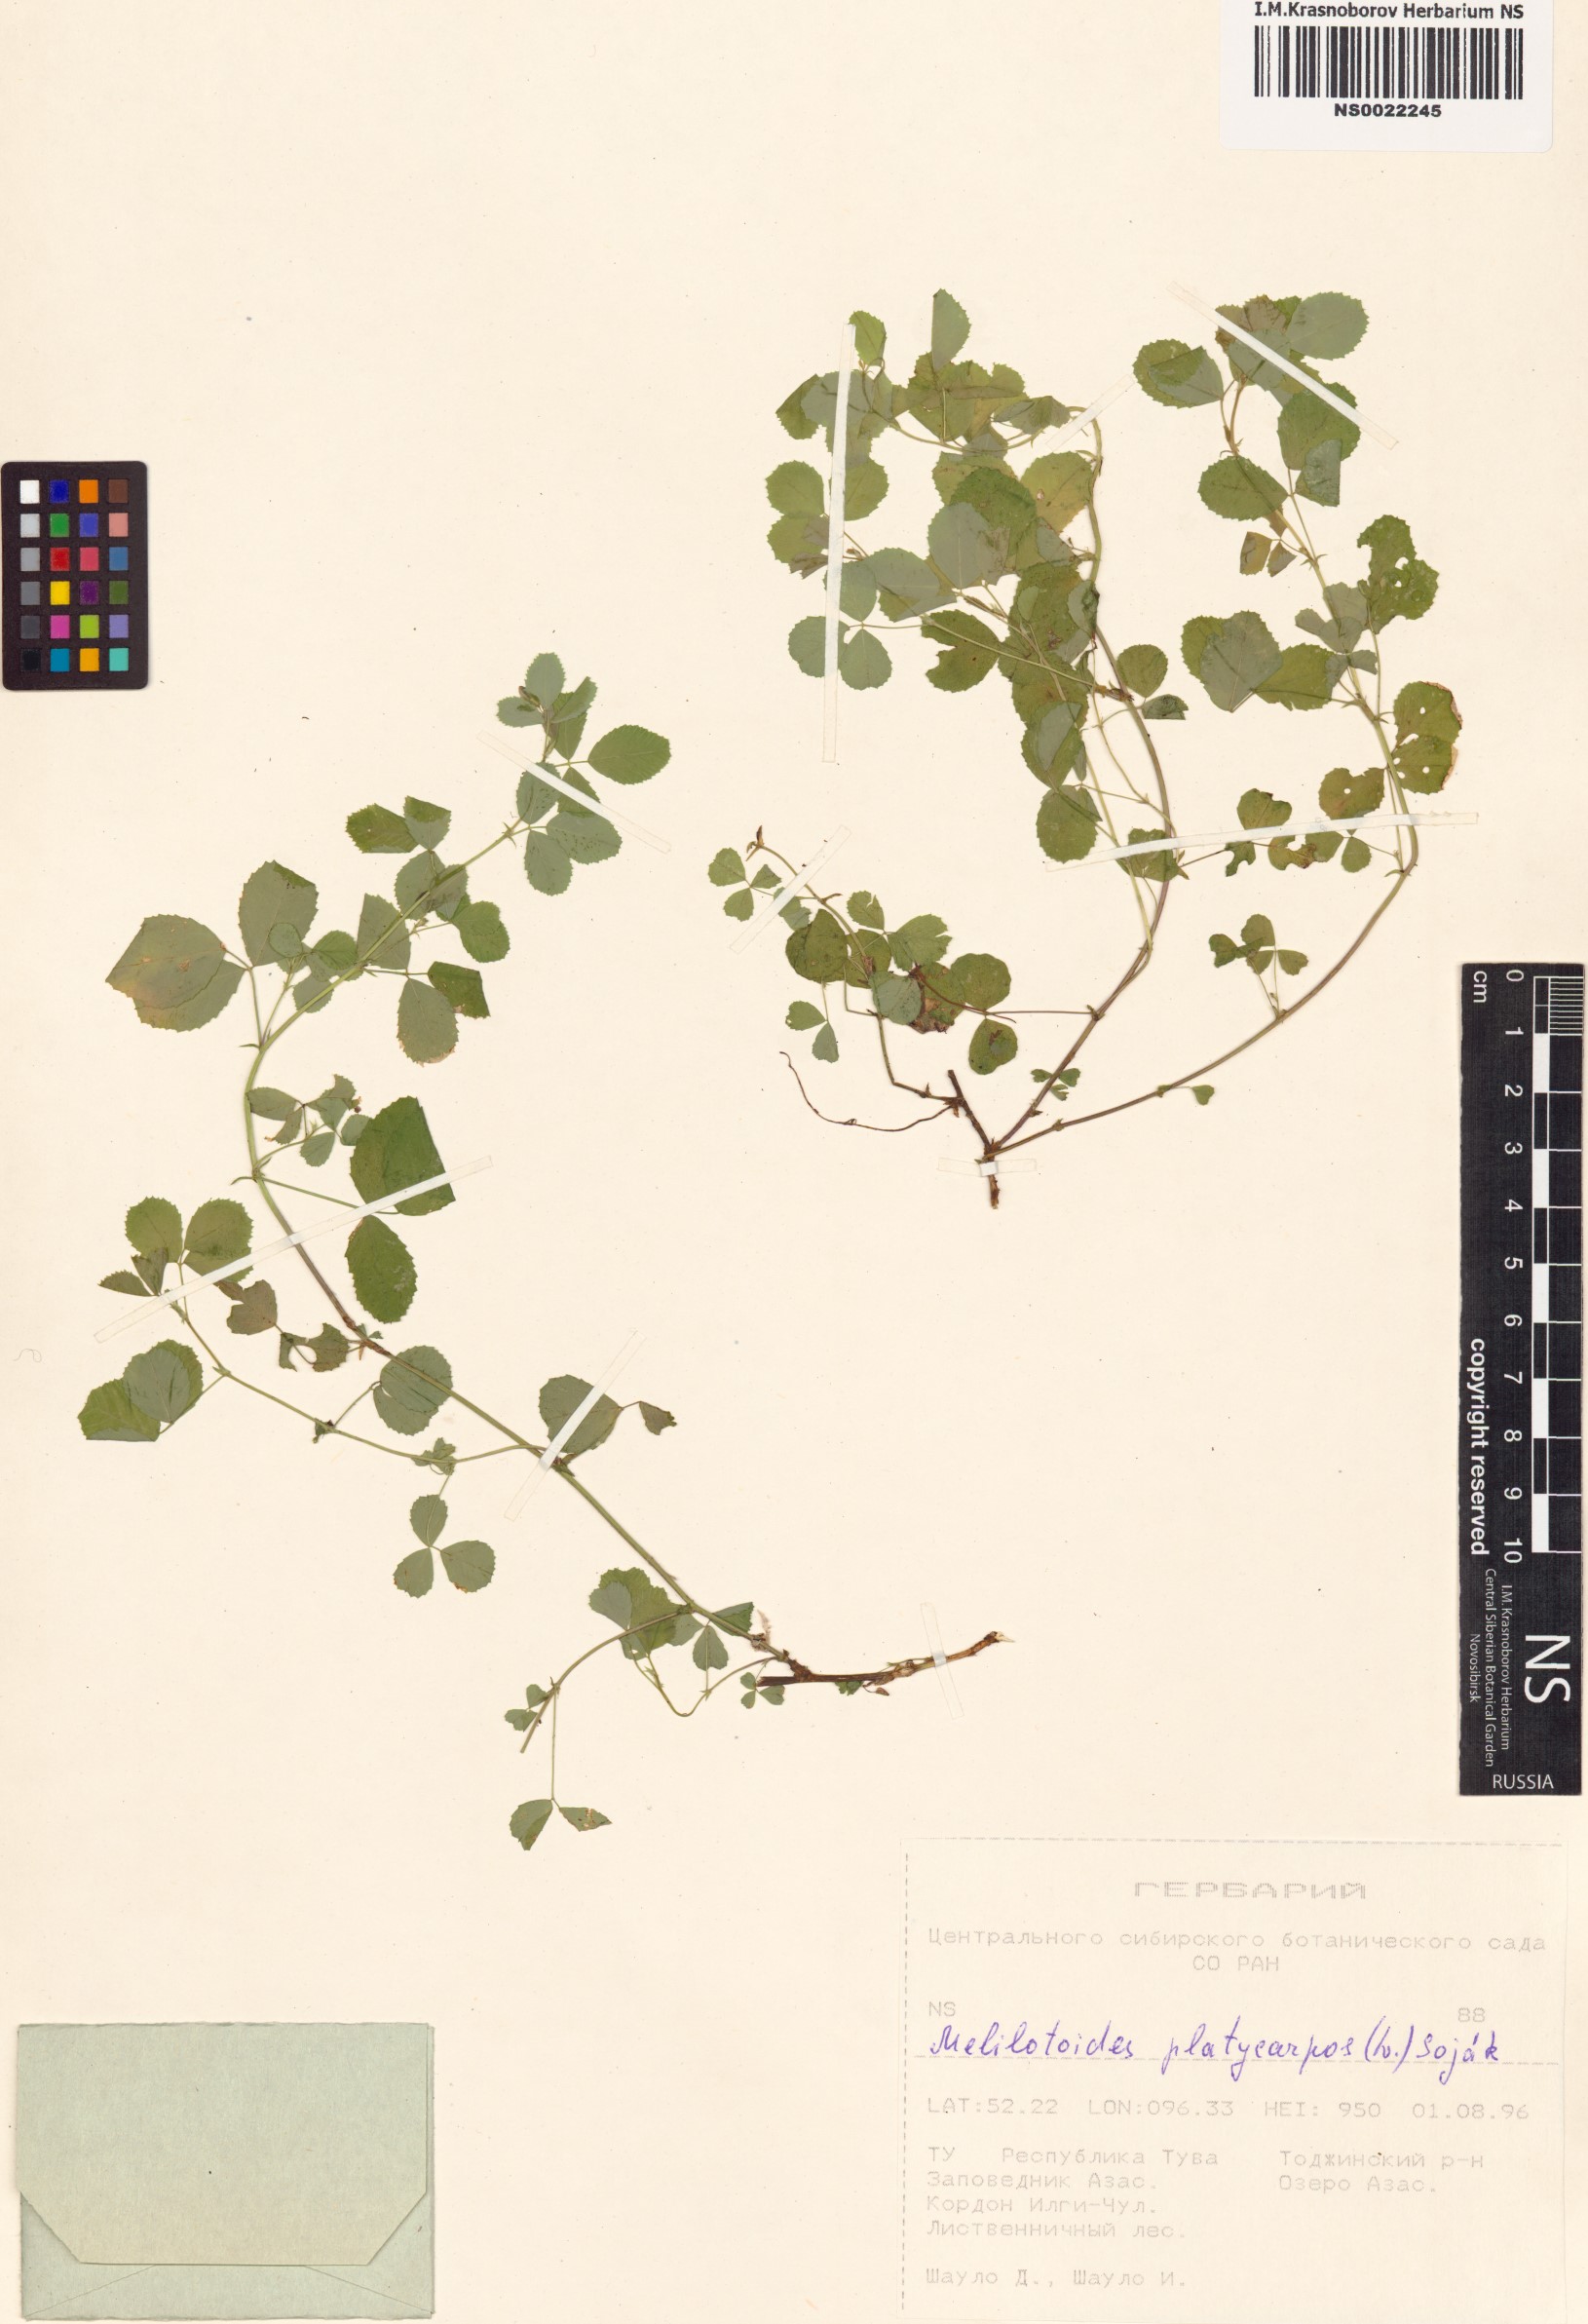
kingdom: Plantae
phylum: Tracheophyta
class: Magnoliopsida
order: Fabales
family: Fabaceae
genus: Medicago
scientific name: Medicago platycarpos
